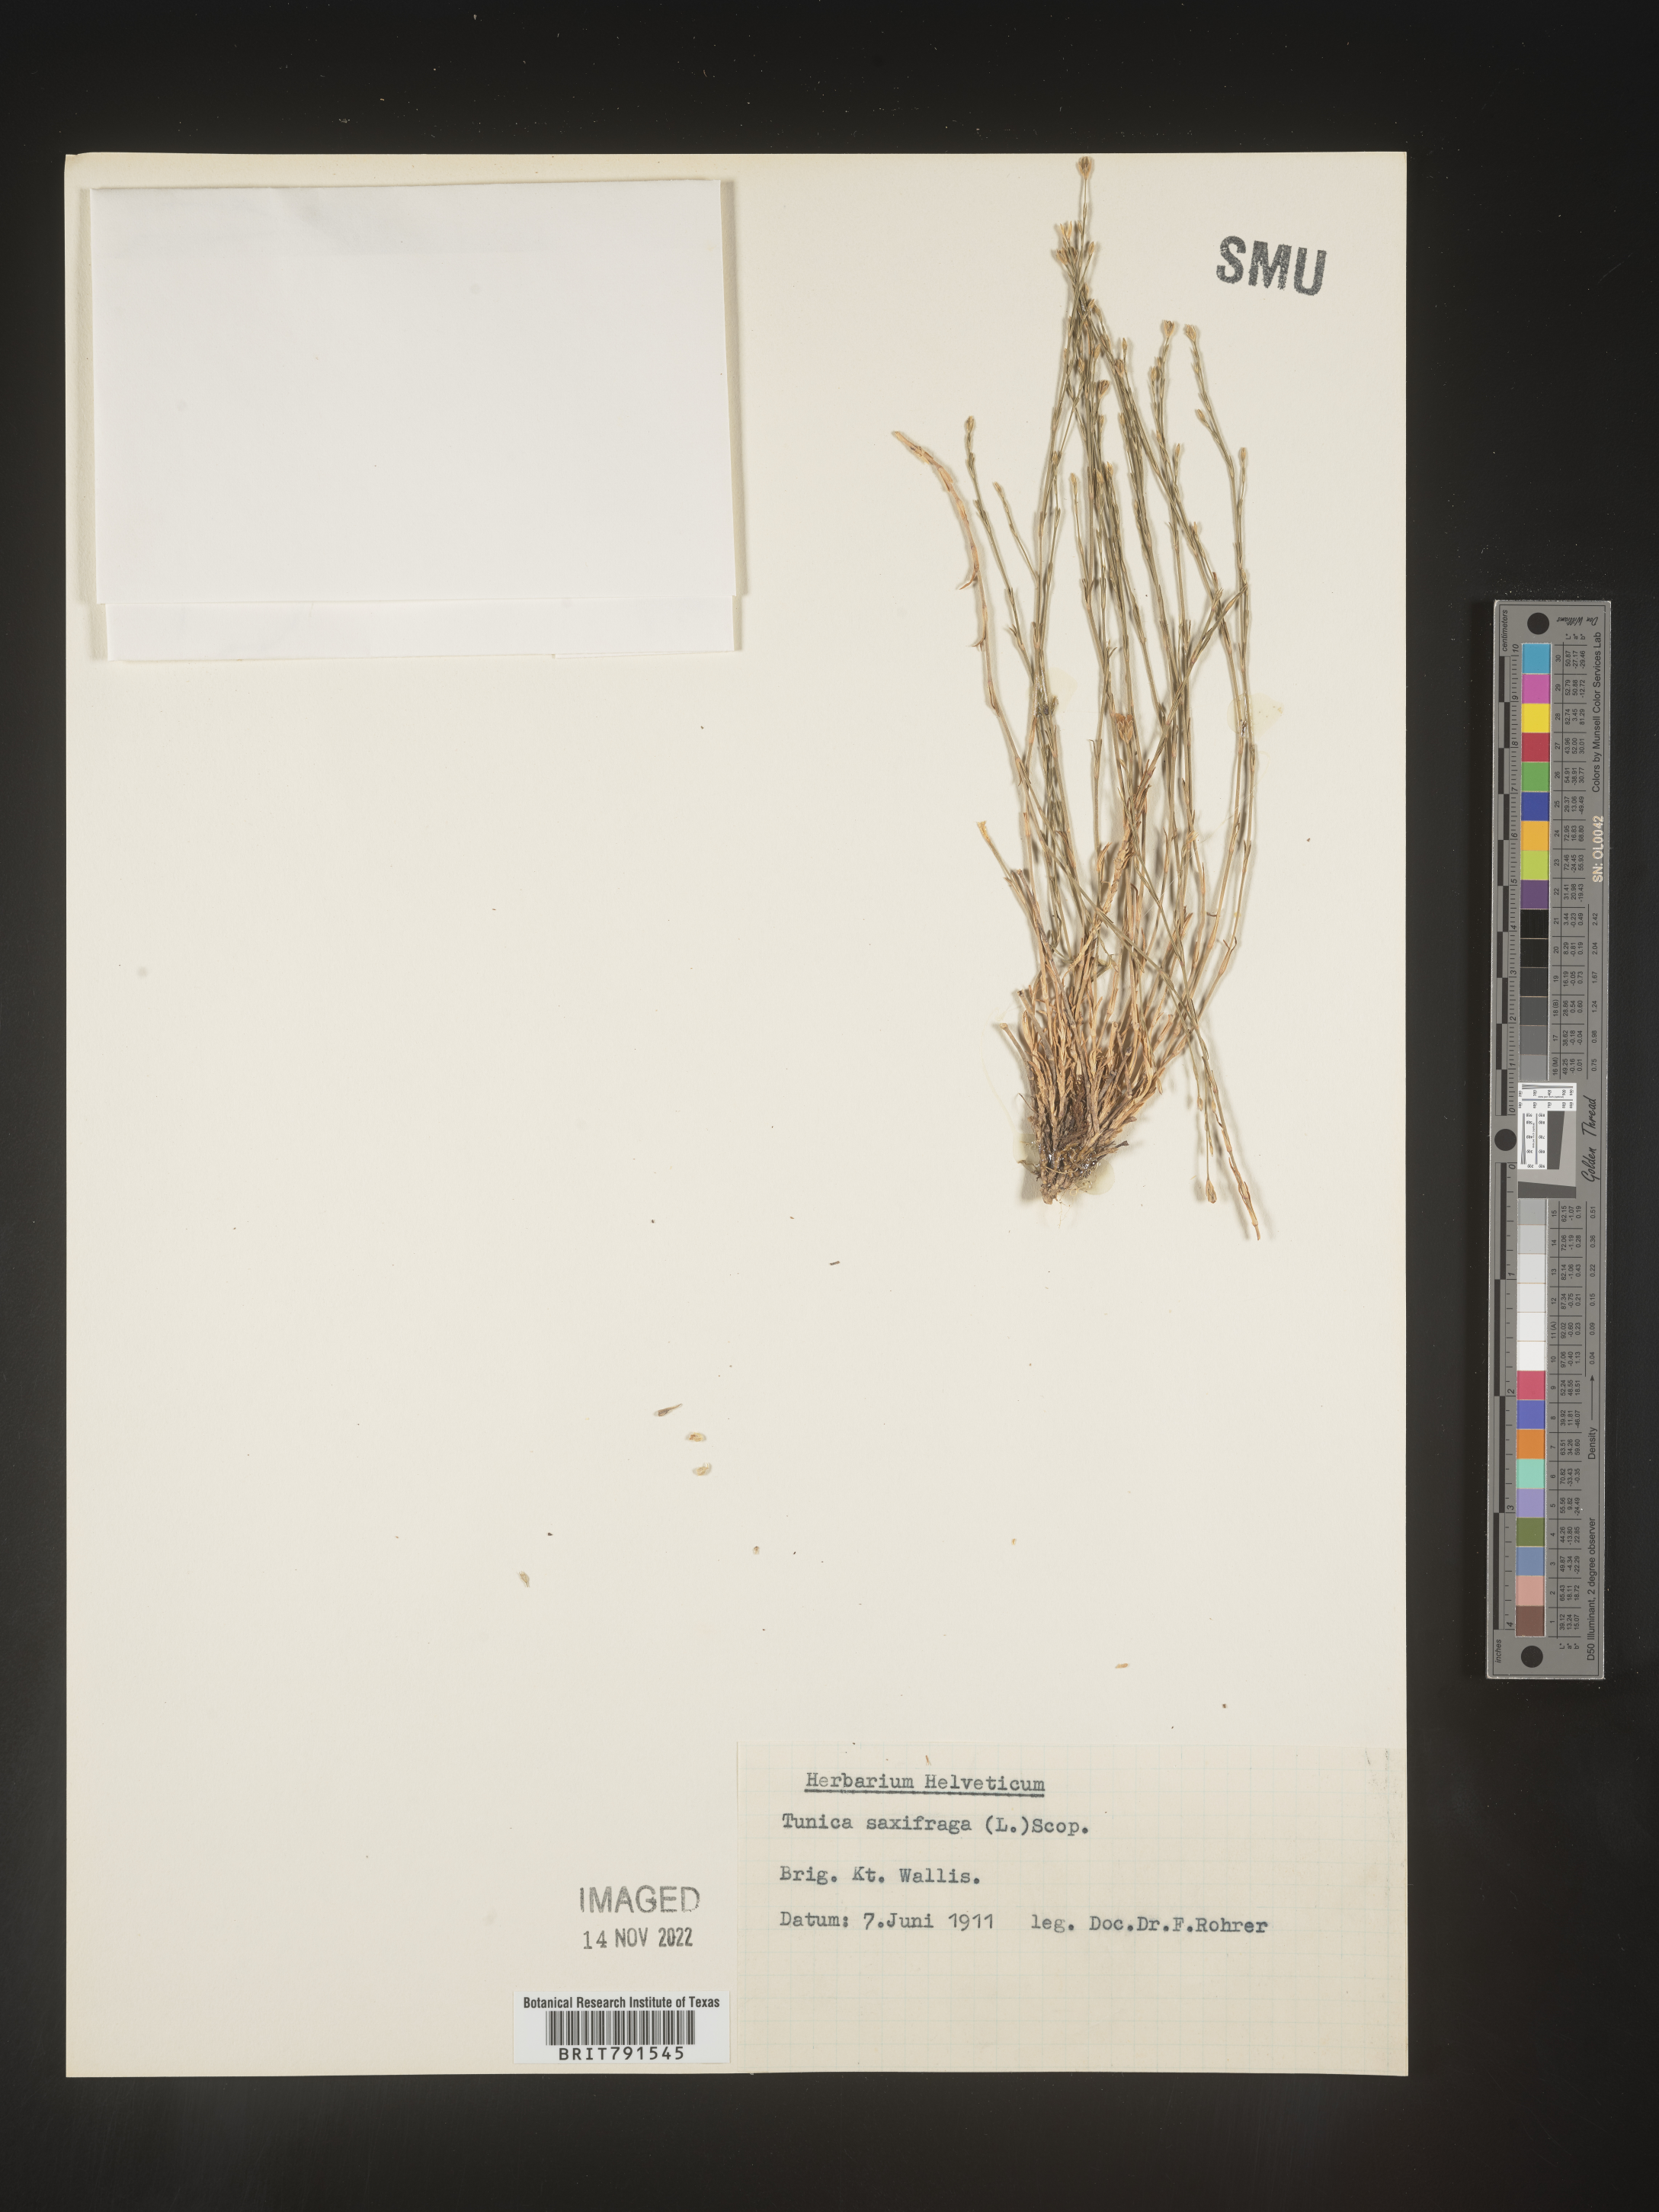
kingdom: Plantae
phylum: Tracheophyta
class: Magnoliopsida
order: Caryophyllales
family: Caryophyllaceae
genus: Petrorhagia
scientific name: Petrorhagia
